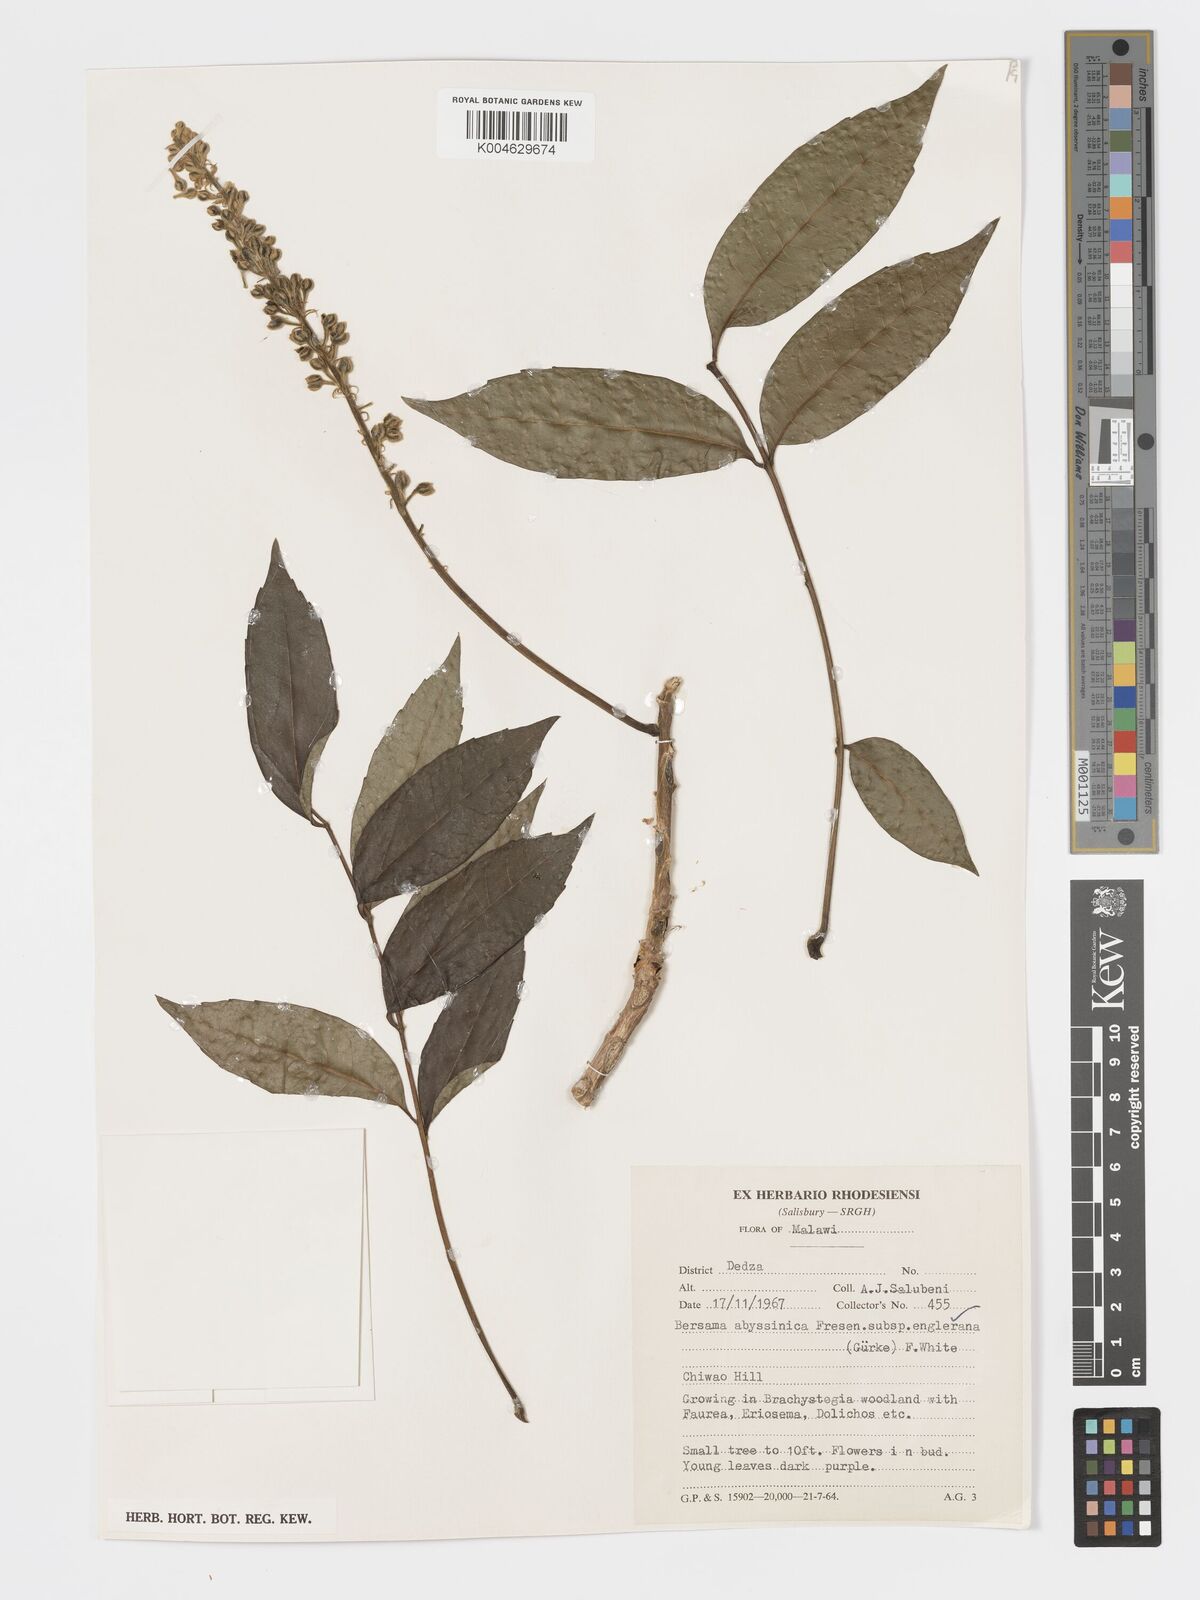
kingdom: Plantae
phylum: Tracheophyta
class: Magnoliopsida
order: Geraniales
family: Melianthaceae
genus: Bersama
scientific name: Bersama abyssinica
